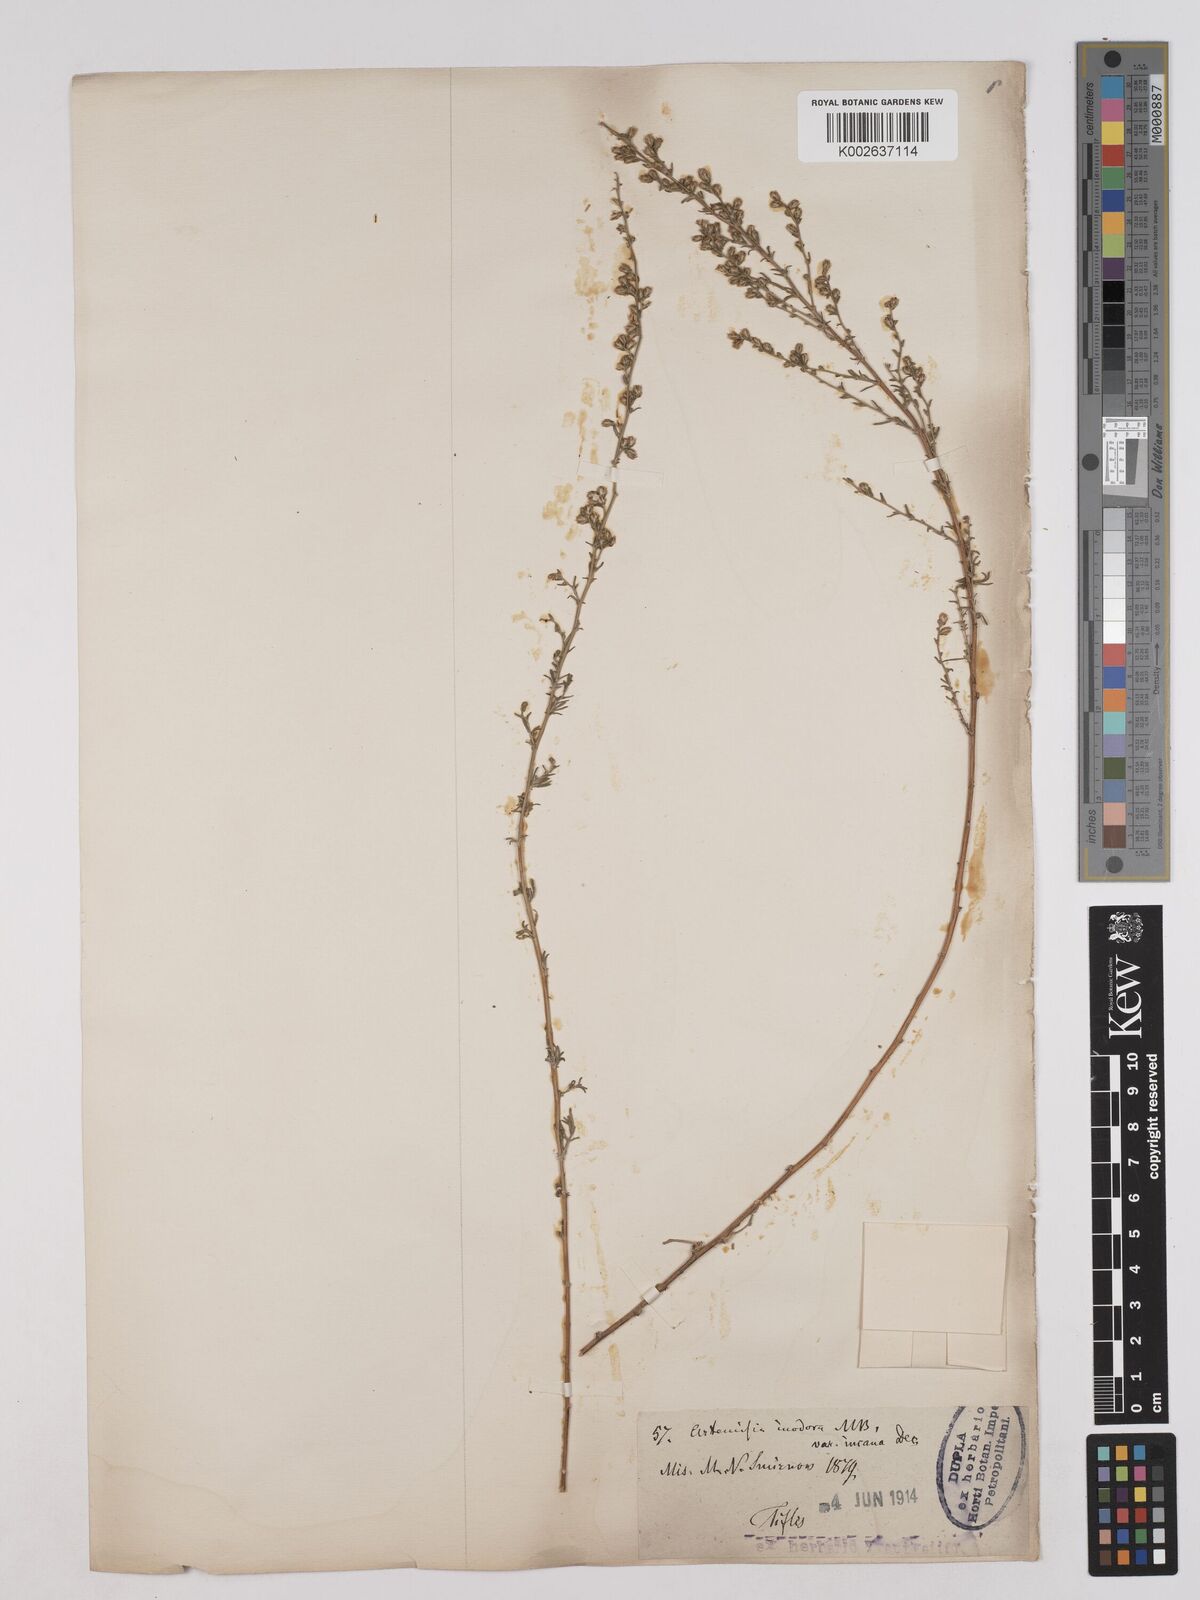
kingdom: Plantae
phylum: Tracheophyta
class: Magnoliopsida
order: Asterales
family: Asteraceae
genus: Artemisia
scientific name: Artemisia campestris
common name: Field wormwood
